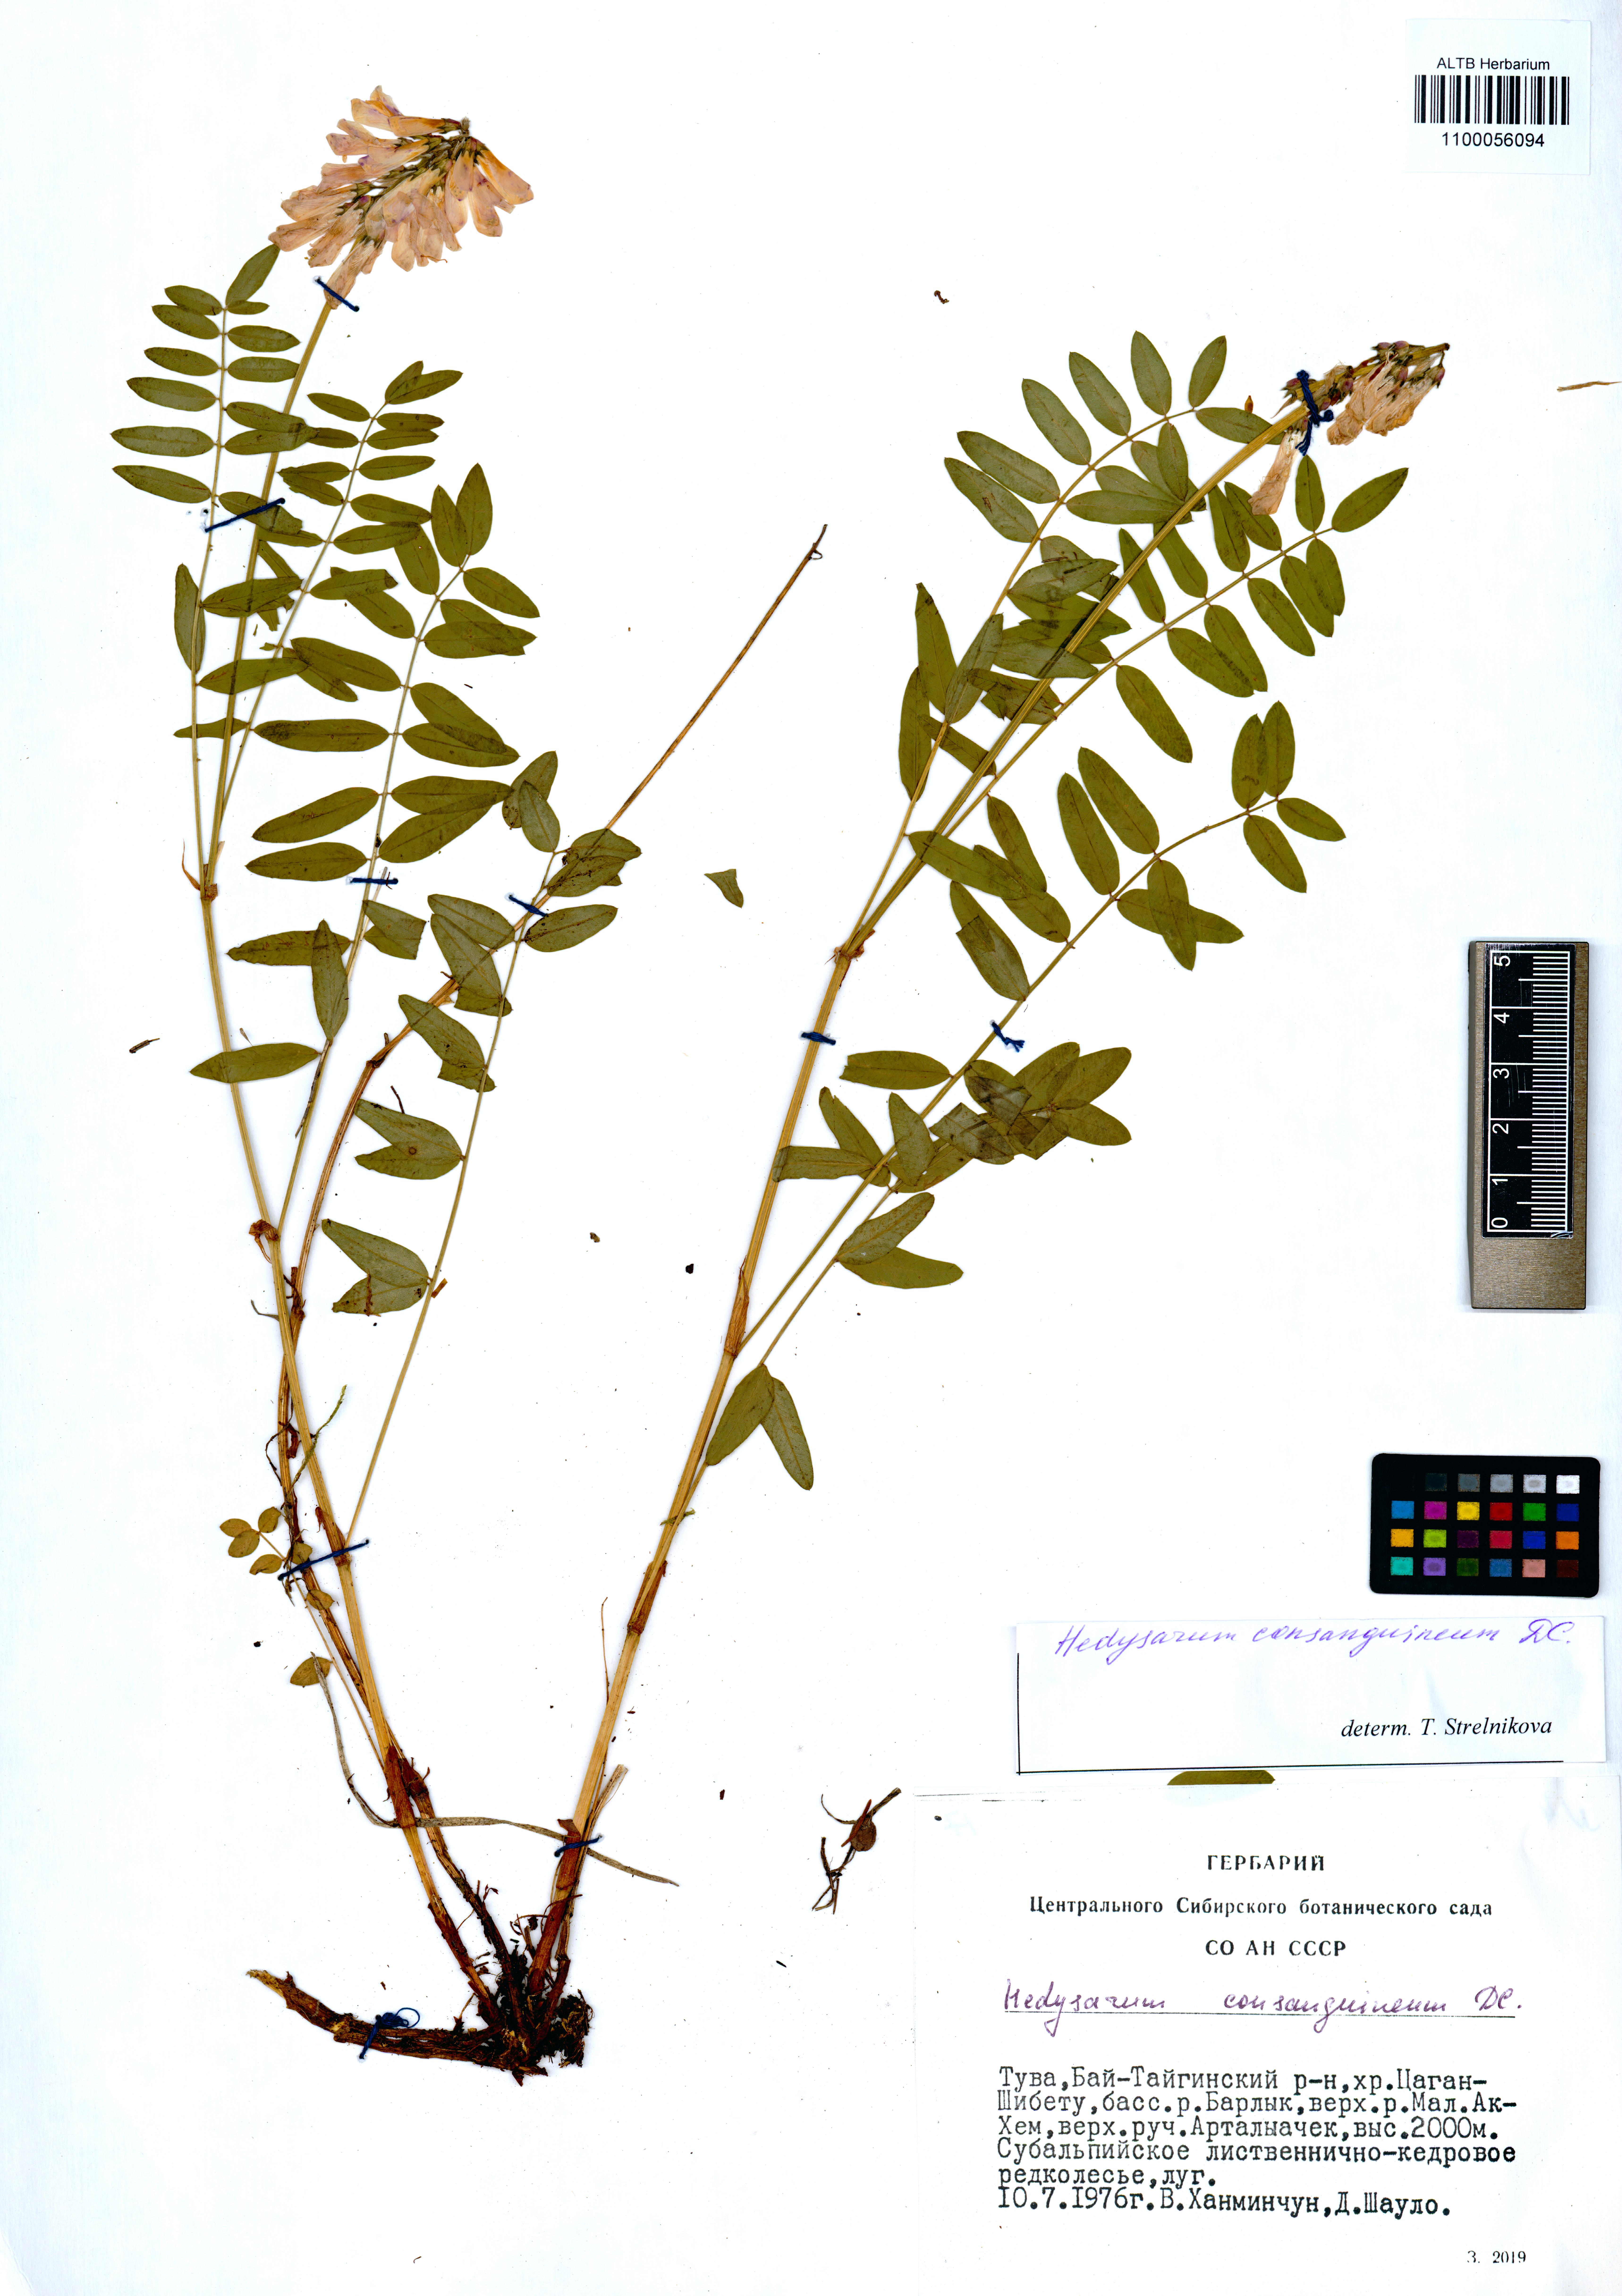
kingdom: Plantae
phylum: Tracheophyta
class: Magnoliopsida
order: Fabales
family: Fabaceae
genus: Hedysarum
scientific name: Hedysarum consanguineum
